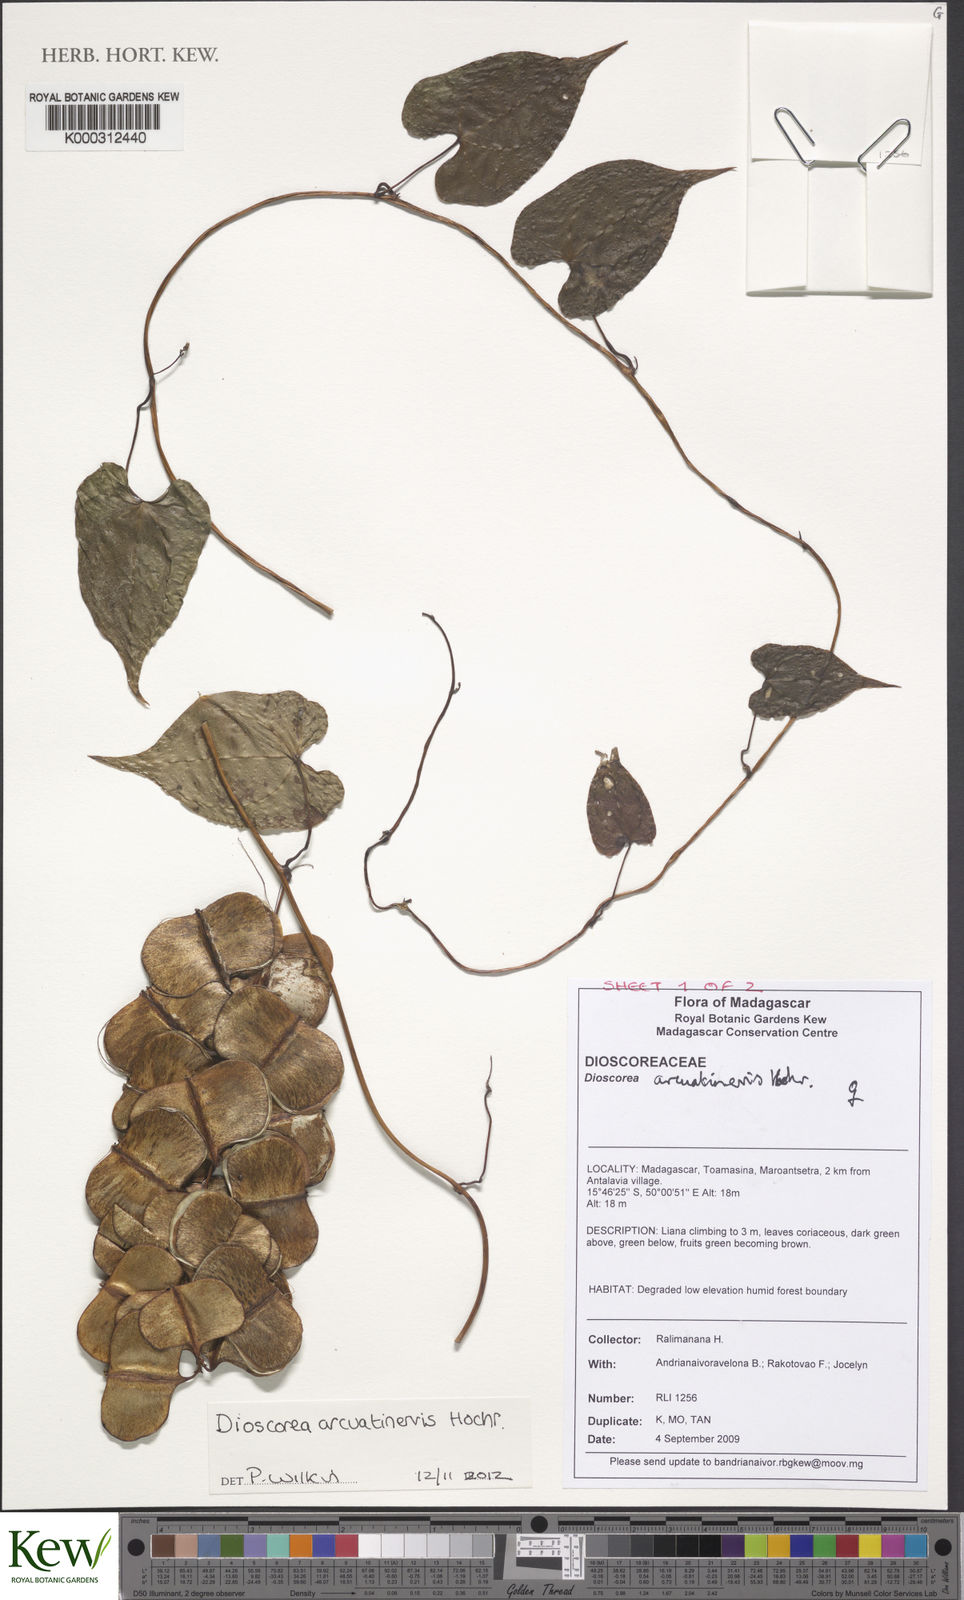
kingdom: Plantae
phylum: Tracheophyta
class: Liliopsida
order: Dioscoreales
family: Dioscoreaceae
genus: Dioscorea
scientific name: Dioscorea arcuatinervis
